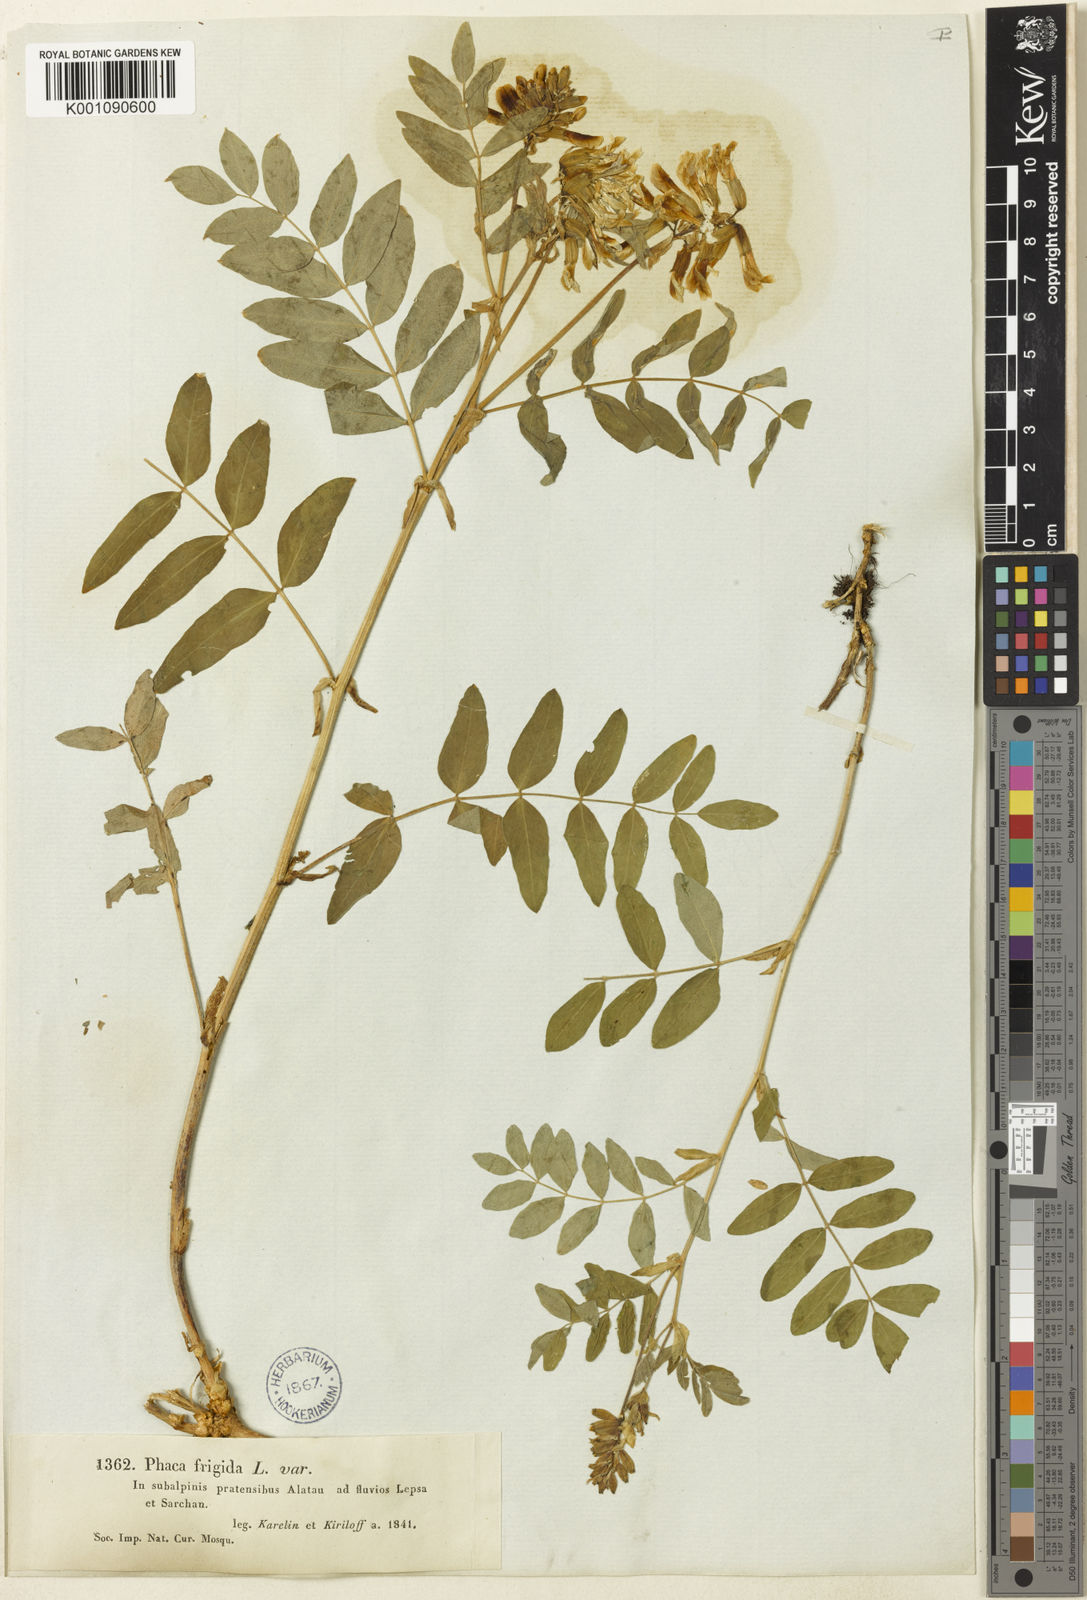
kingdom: Plantae
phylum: Tracheophyta
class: Magnoliopsida
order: Fabales
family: Fabaceae
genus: Astragalus
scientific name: Astragalus
